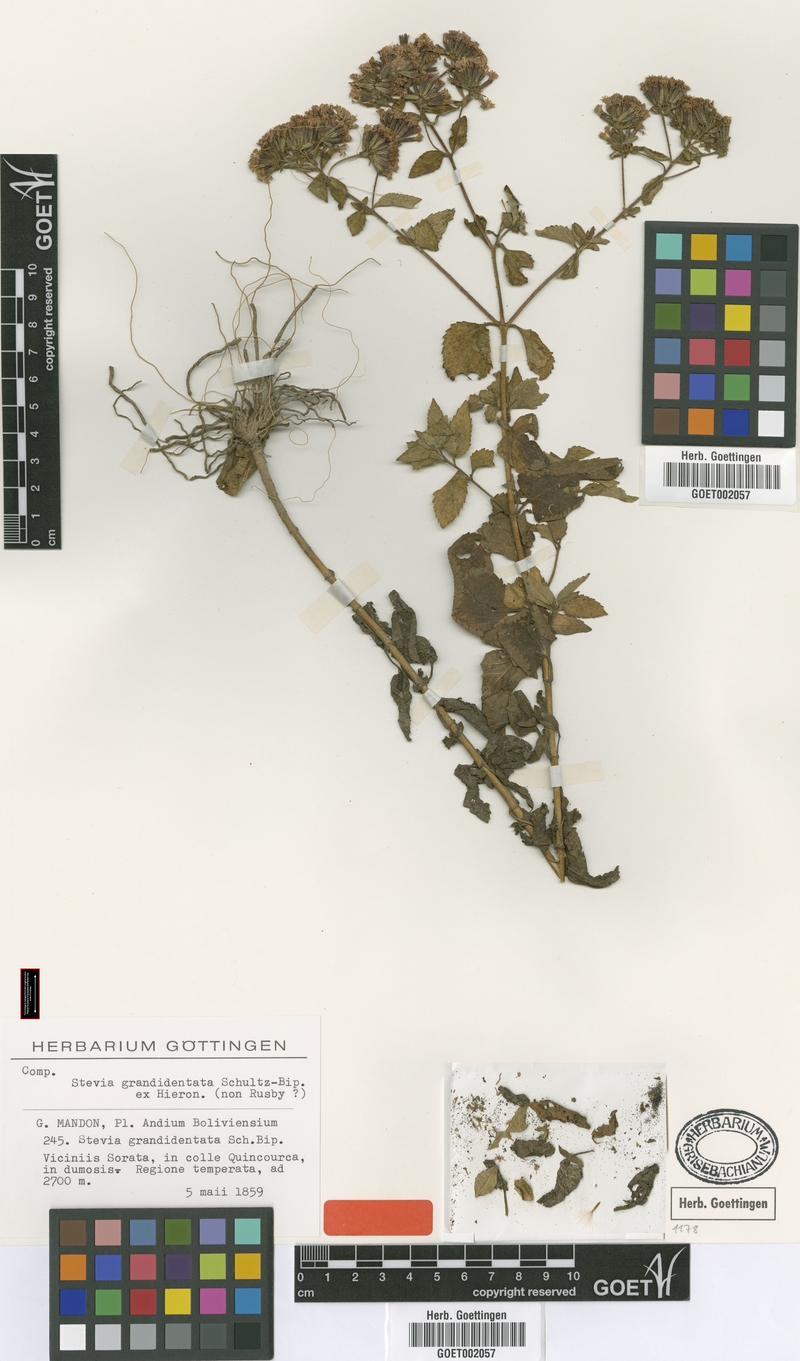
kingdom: Plantae
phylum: Tracheophyta
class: Magnoliopsida
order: Asterales
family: Asteraceae
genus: Stevia
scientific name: Stevia soratensis
